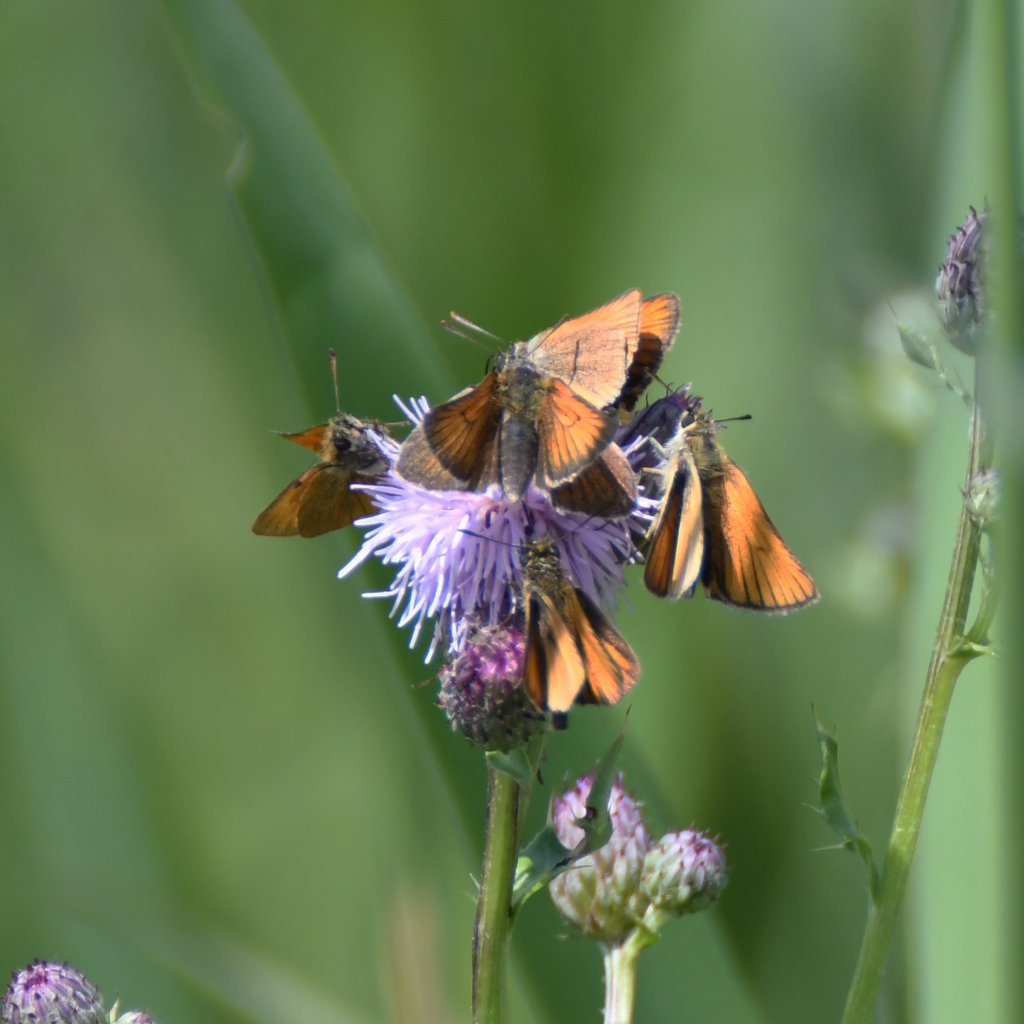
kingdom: Animalia
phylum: Arthropoda
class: Insecta
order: Lepidoptera
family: Hesperiidae
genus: Thymelicus
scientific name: Thymelicus lineola
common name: European Skipper
